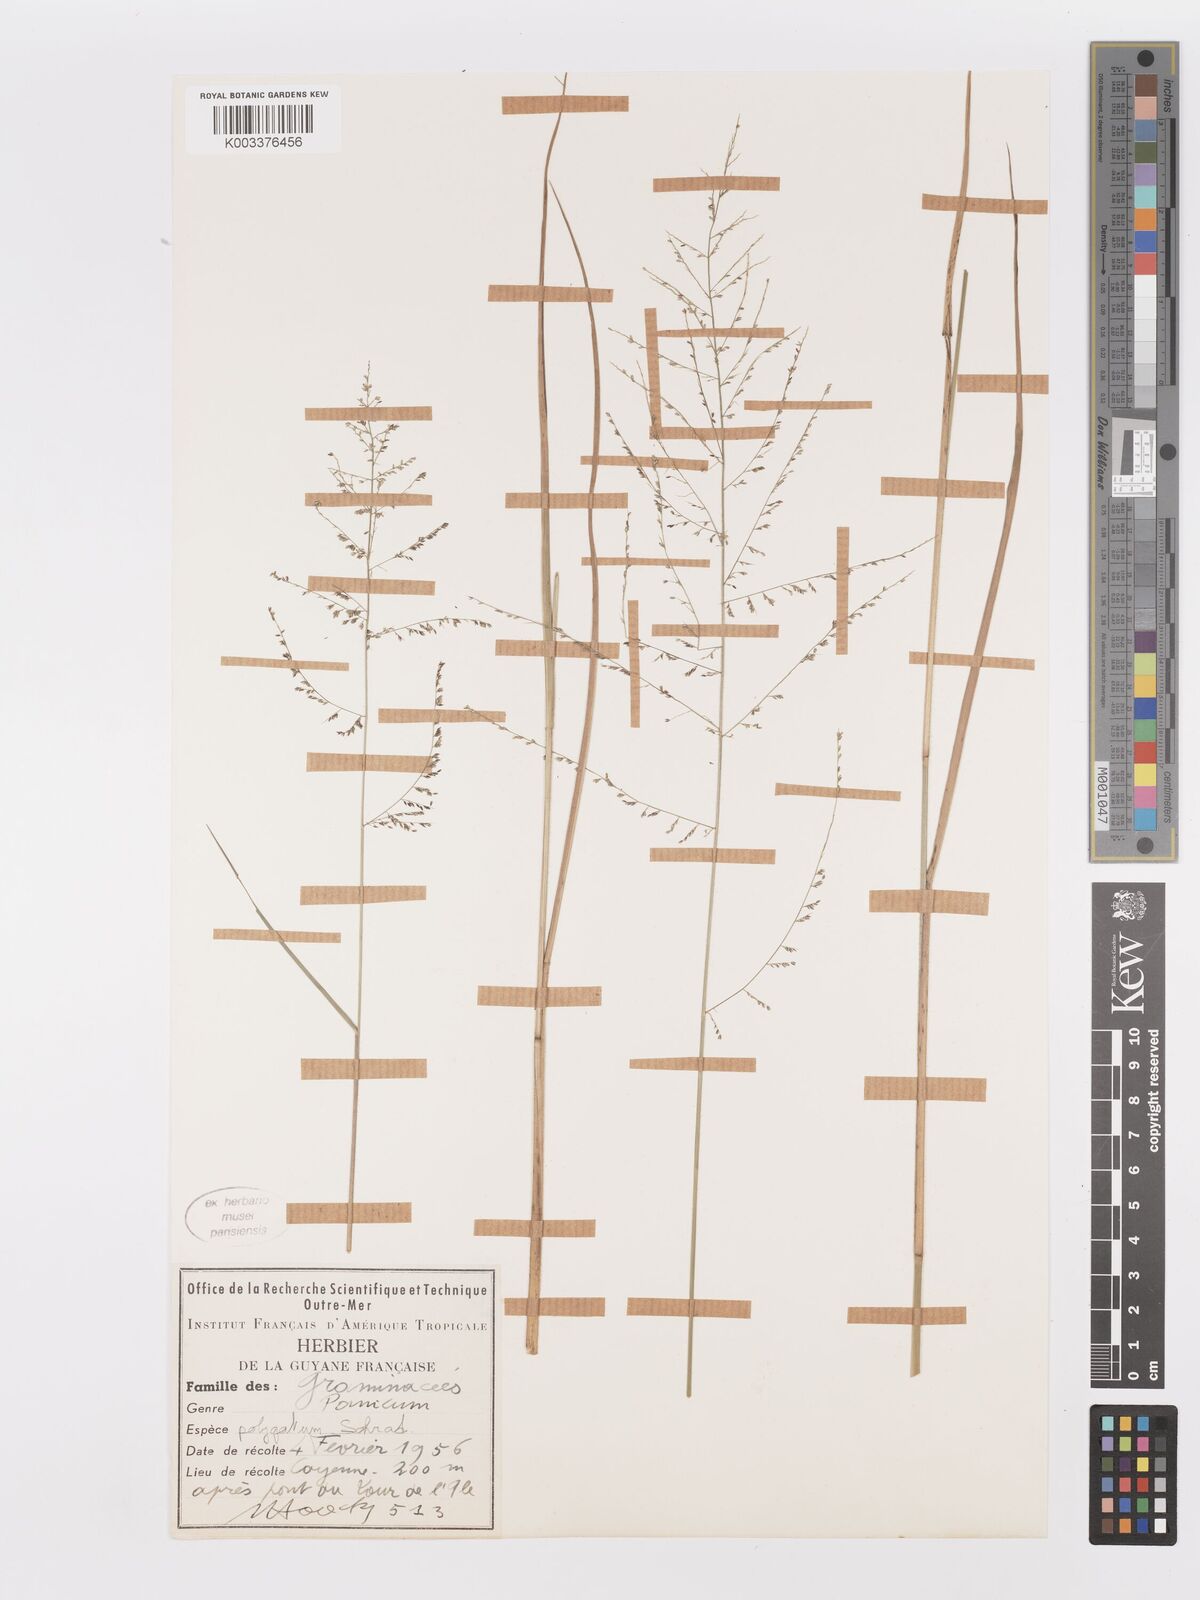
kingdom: Plantae
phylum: Tracheophyta
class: Liliopsida
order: Poales
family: Poaceae
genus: Rugoloa
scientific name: Rugoloa polygonata
